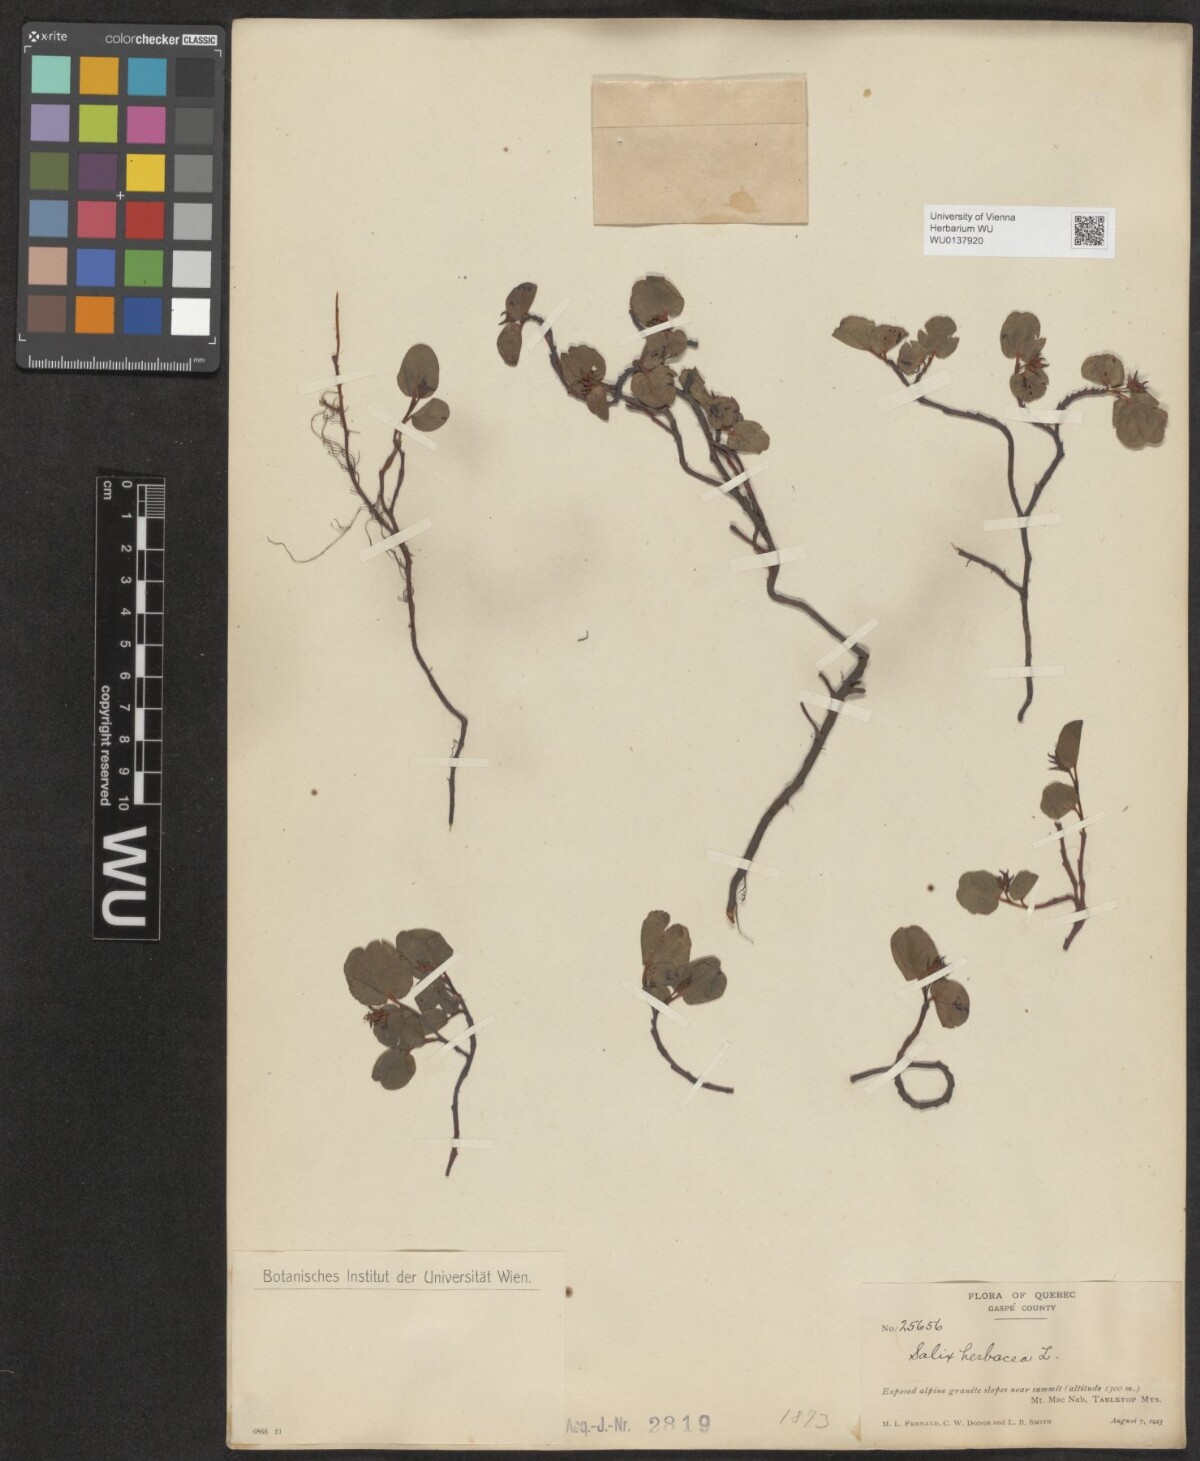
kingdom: Plantae
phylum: Tracheophyta
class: Magnoliopsida
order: Malpighiales
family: Salicaceae
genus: Salix
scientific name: Salix herbacea
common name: Dwarf willow
